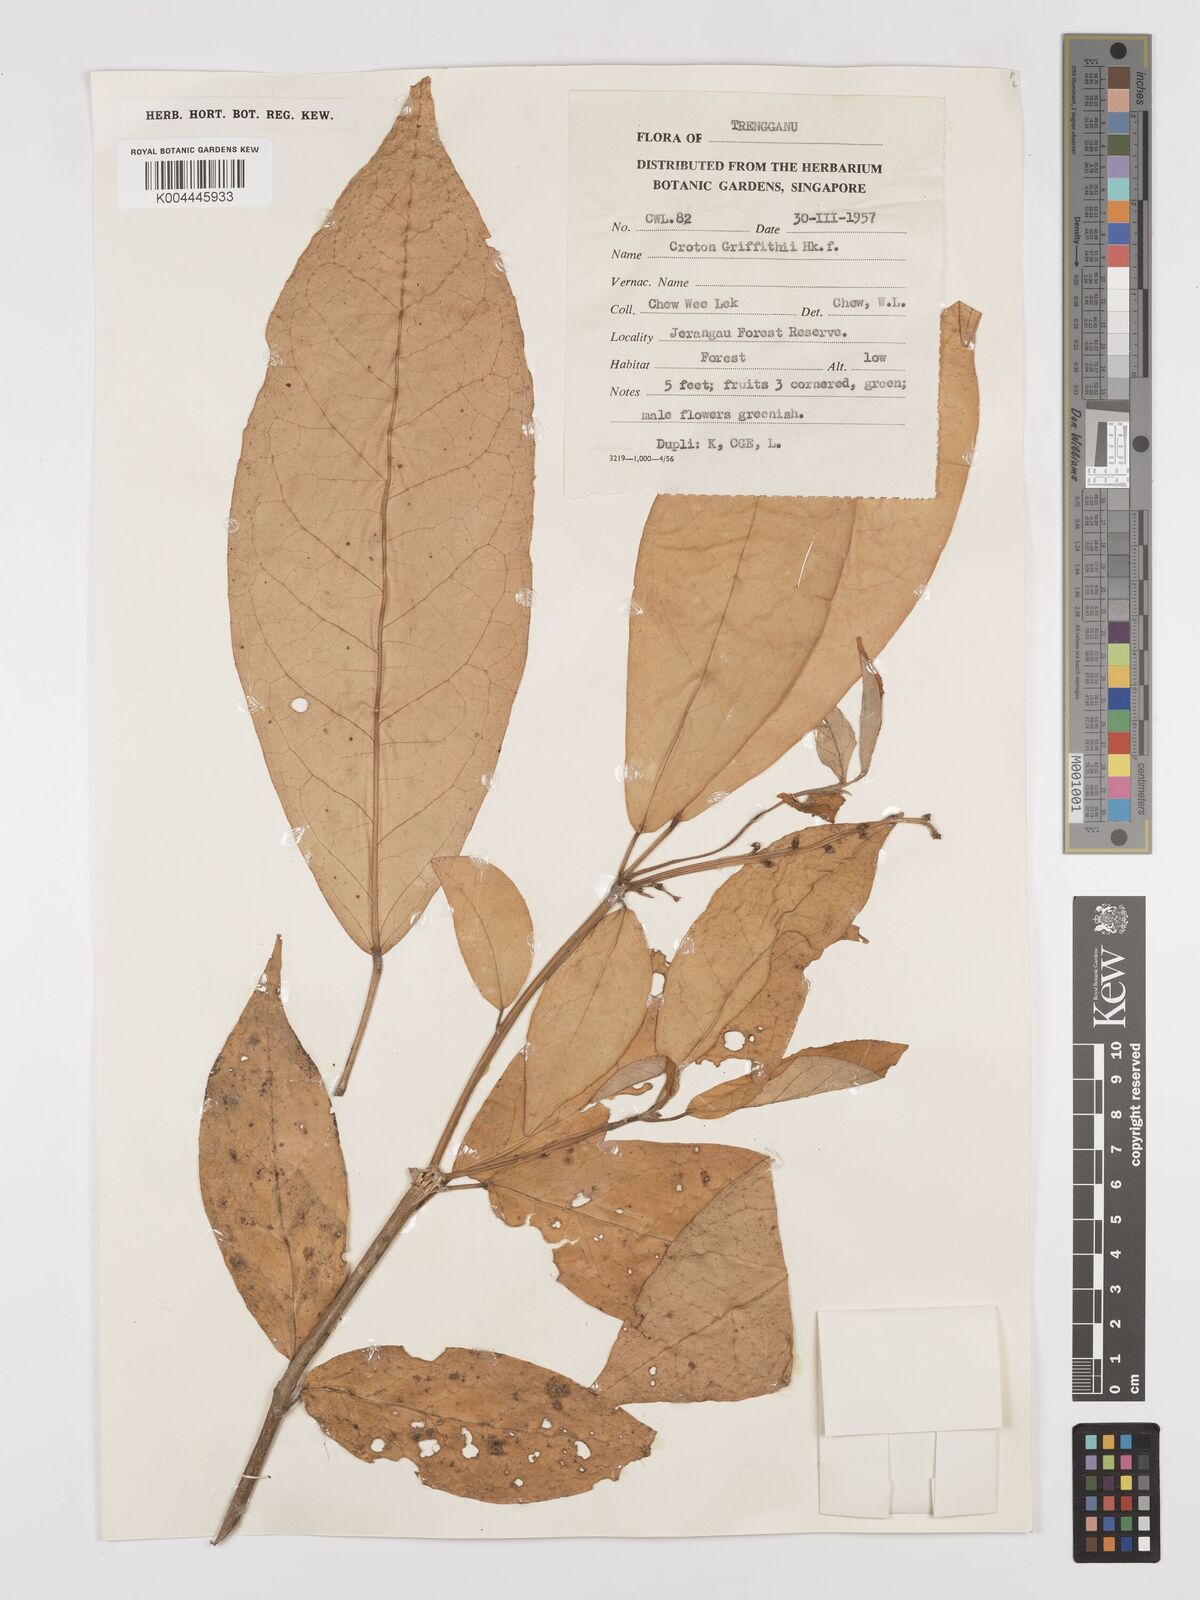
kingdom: Plantae
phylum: Tracheophyta
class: Magnoliopsida
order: Malpighiales
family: Euphorbiaceae
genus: Croton
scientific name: Croton griffithii
